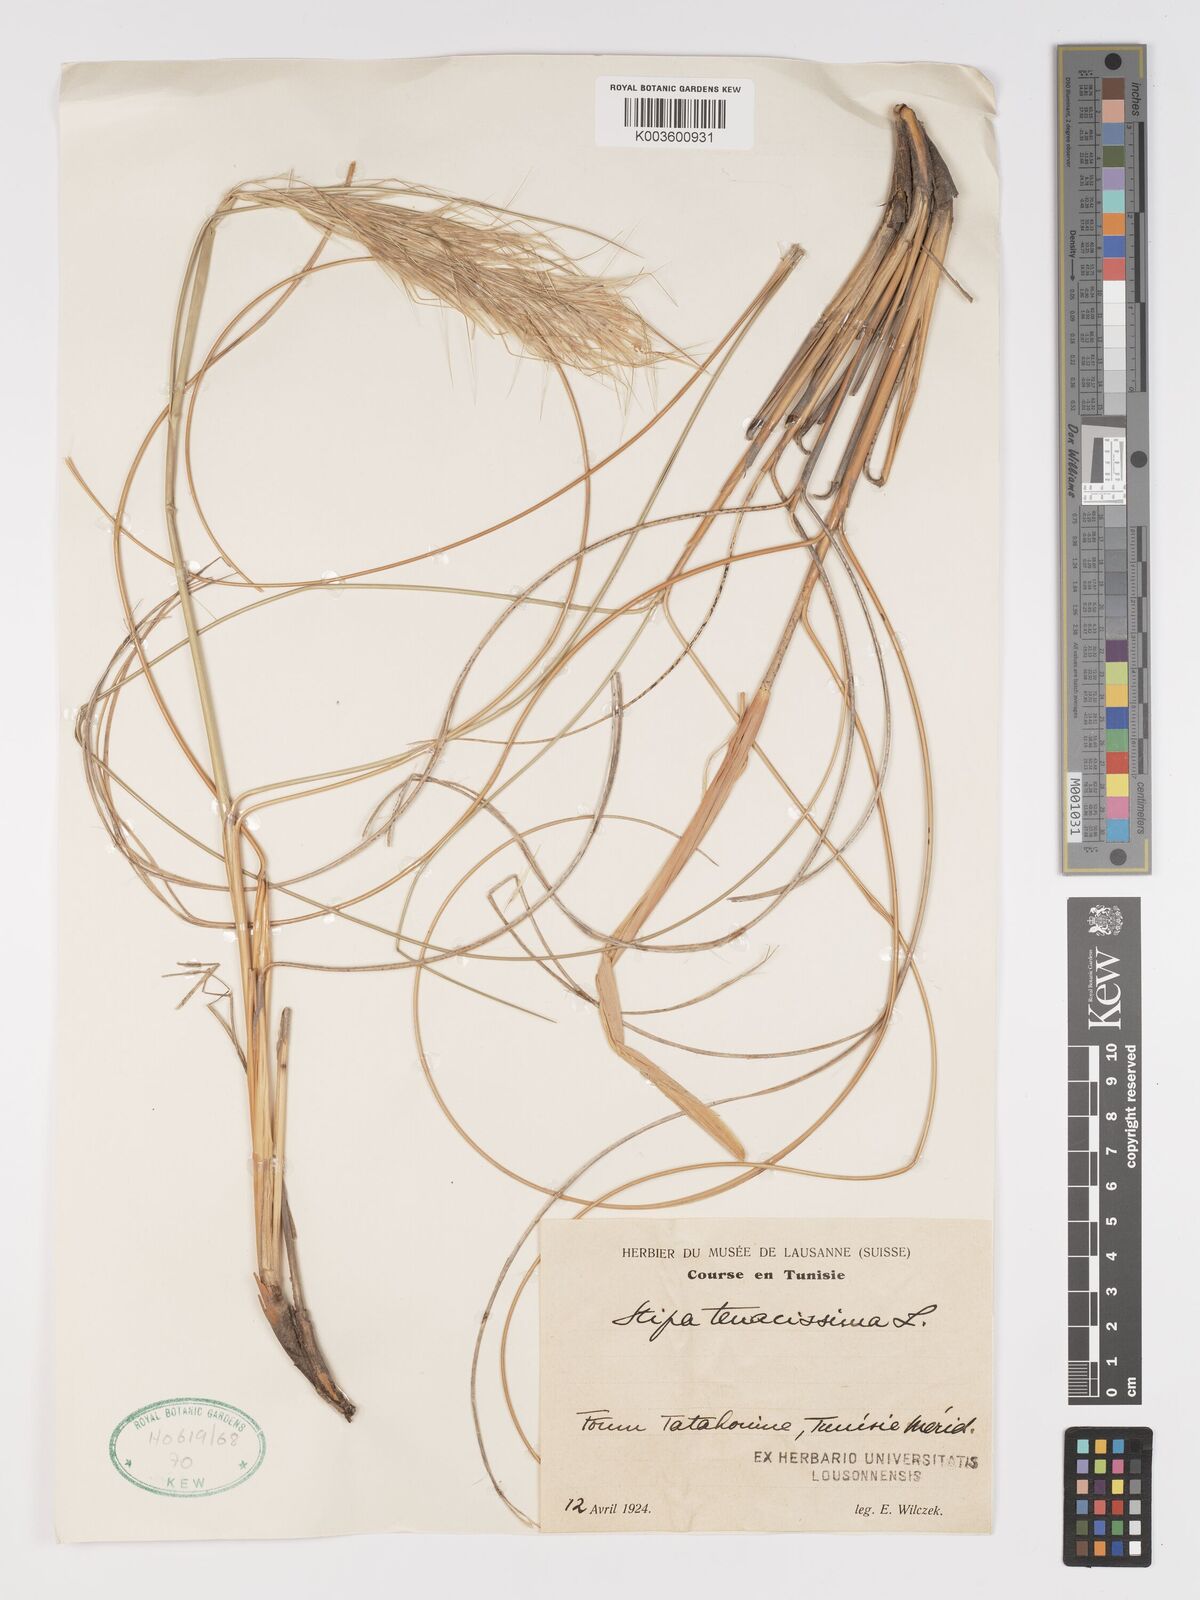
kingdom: Plantae
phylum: Tracheophyta
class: Liliopsida
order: Poales
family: Poaceae
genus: Macrochloa
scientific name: Macrochloa tenacissima
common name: Alfa grass
